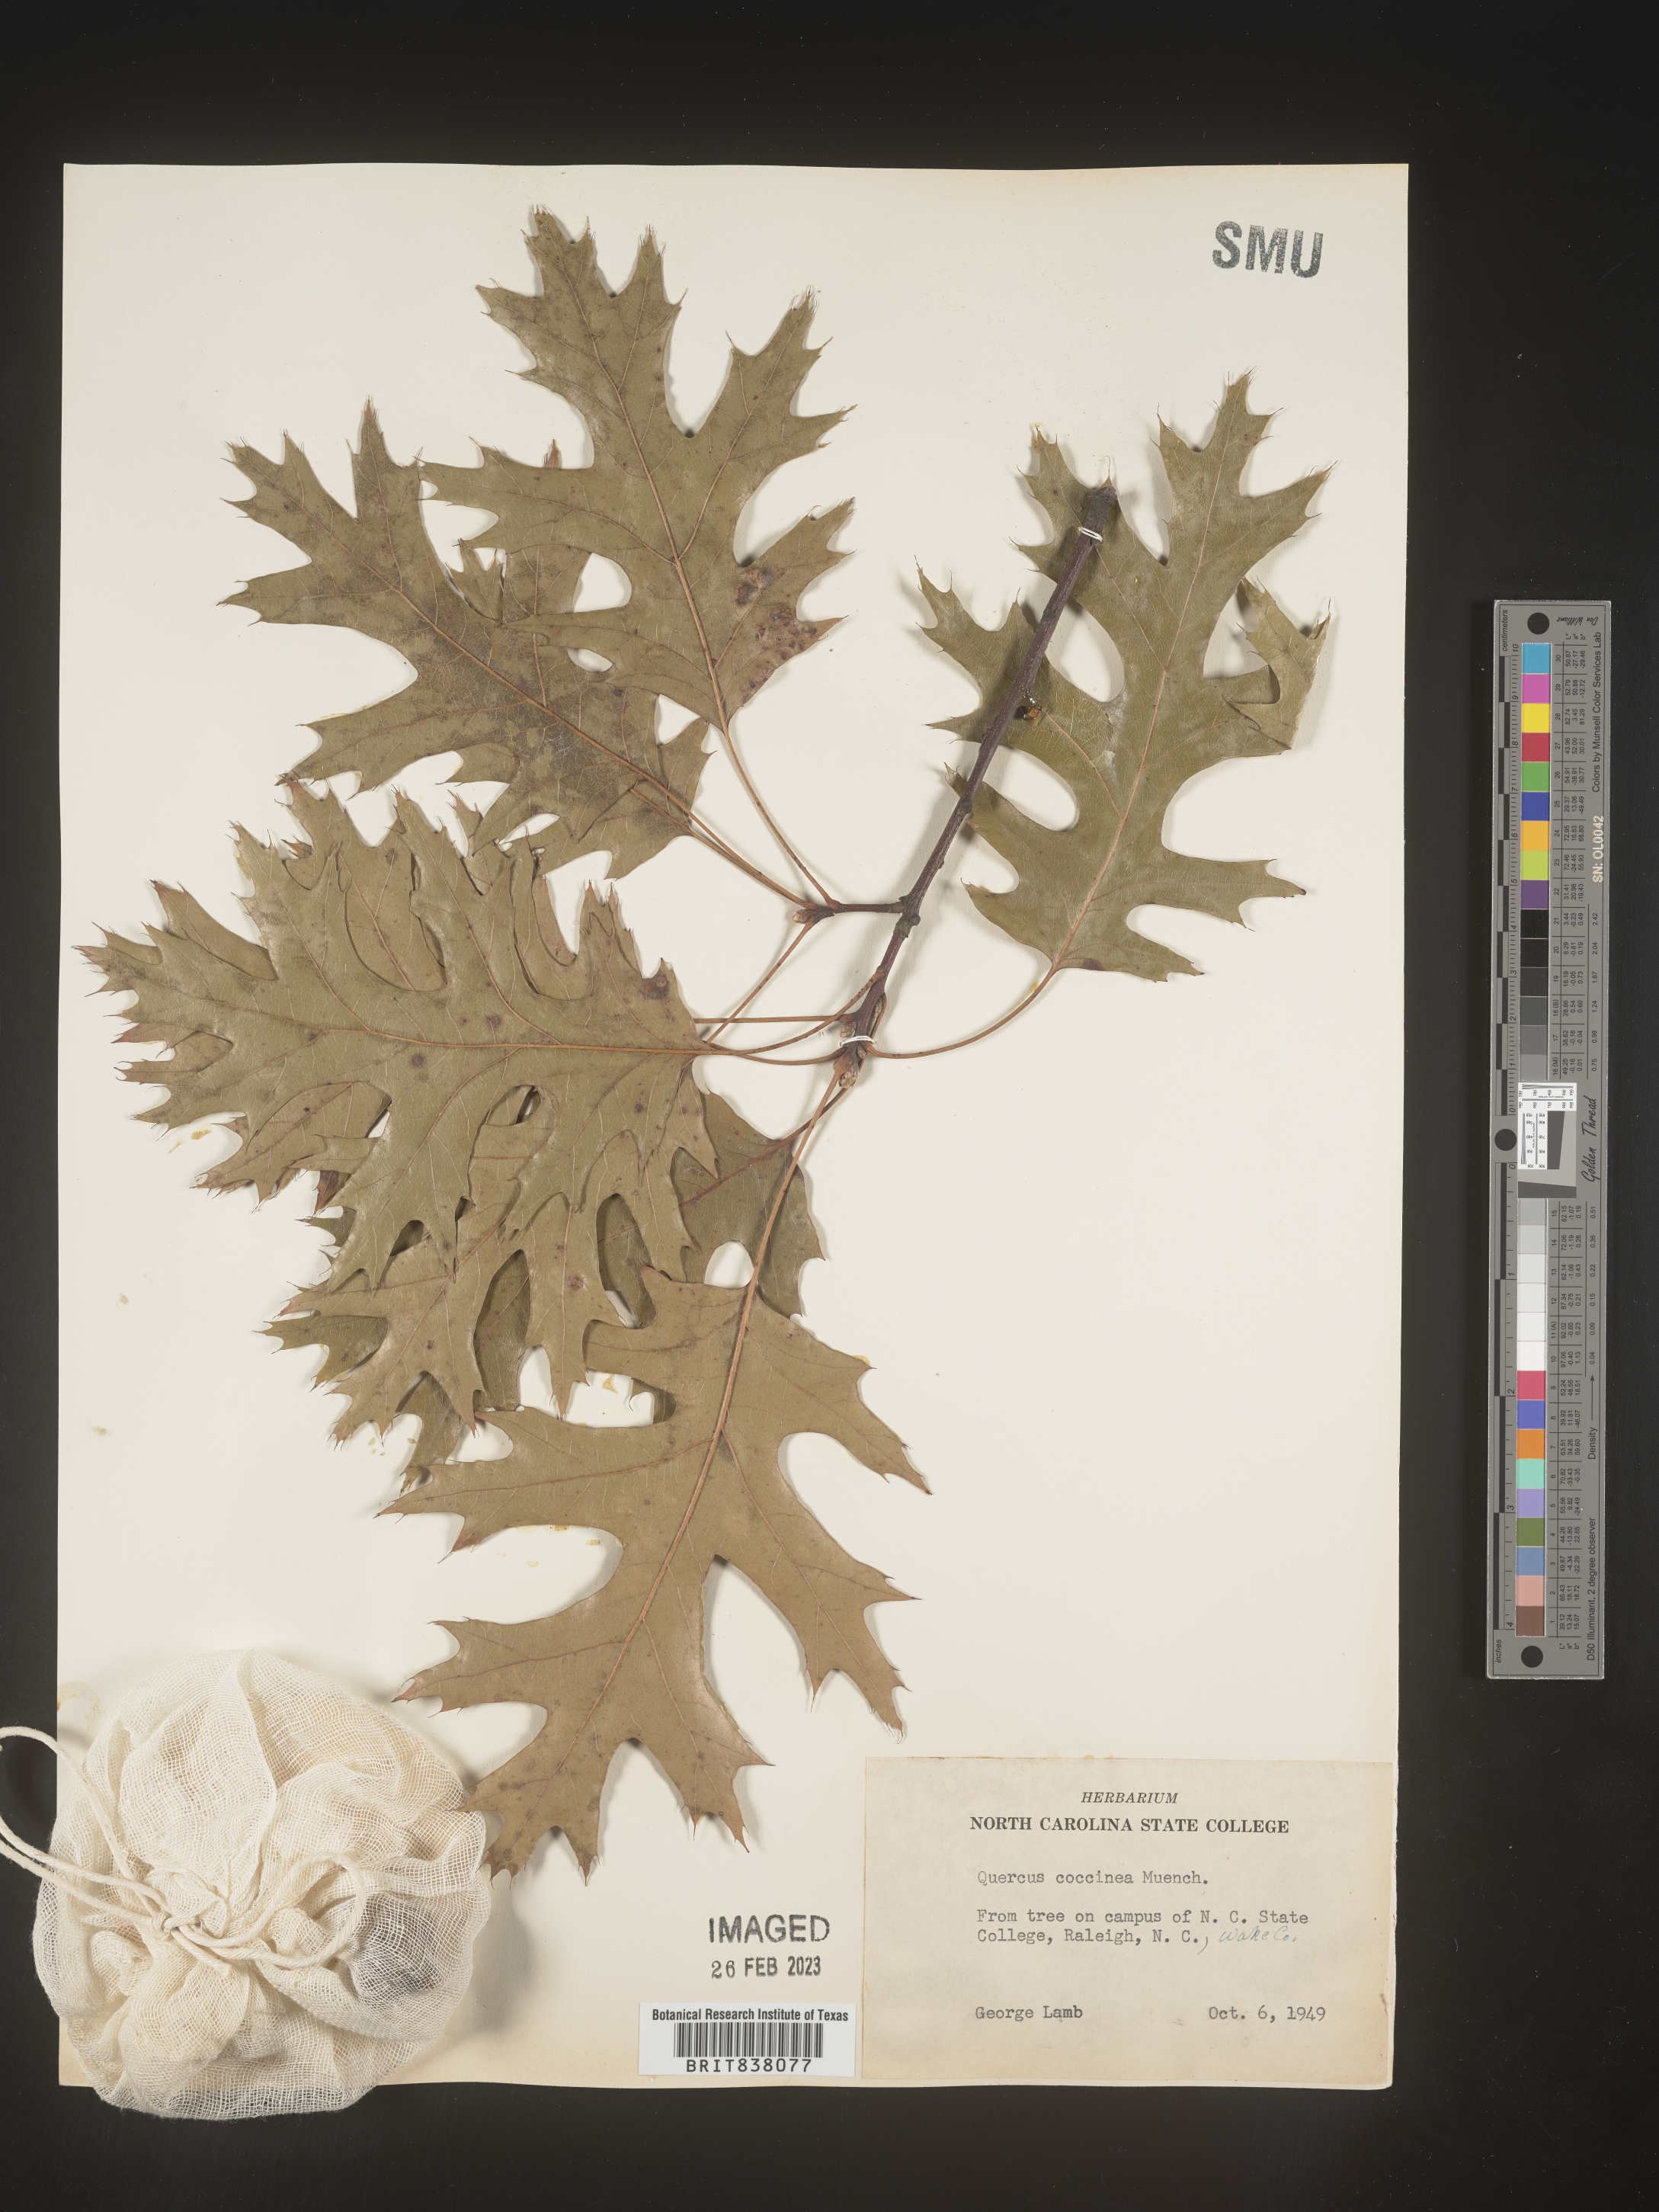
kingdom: Plantae
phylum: Tracheophyta
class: Magnoliopsida
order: Fagales
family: Fagaceae
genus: Quercus
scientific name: Quercus coccinea
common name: Scarlet oak
